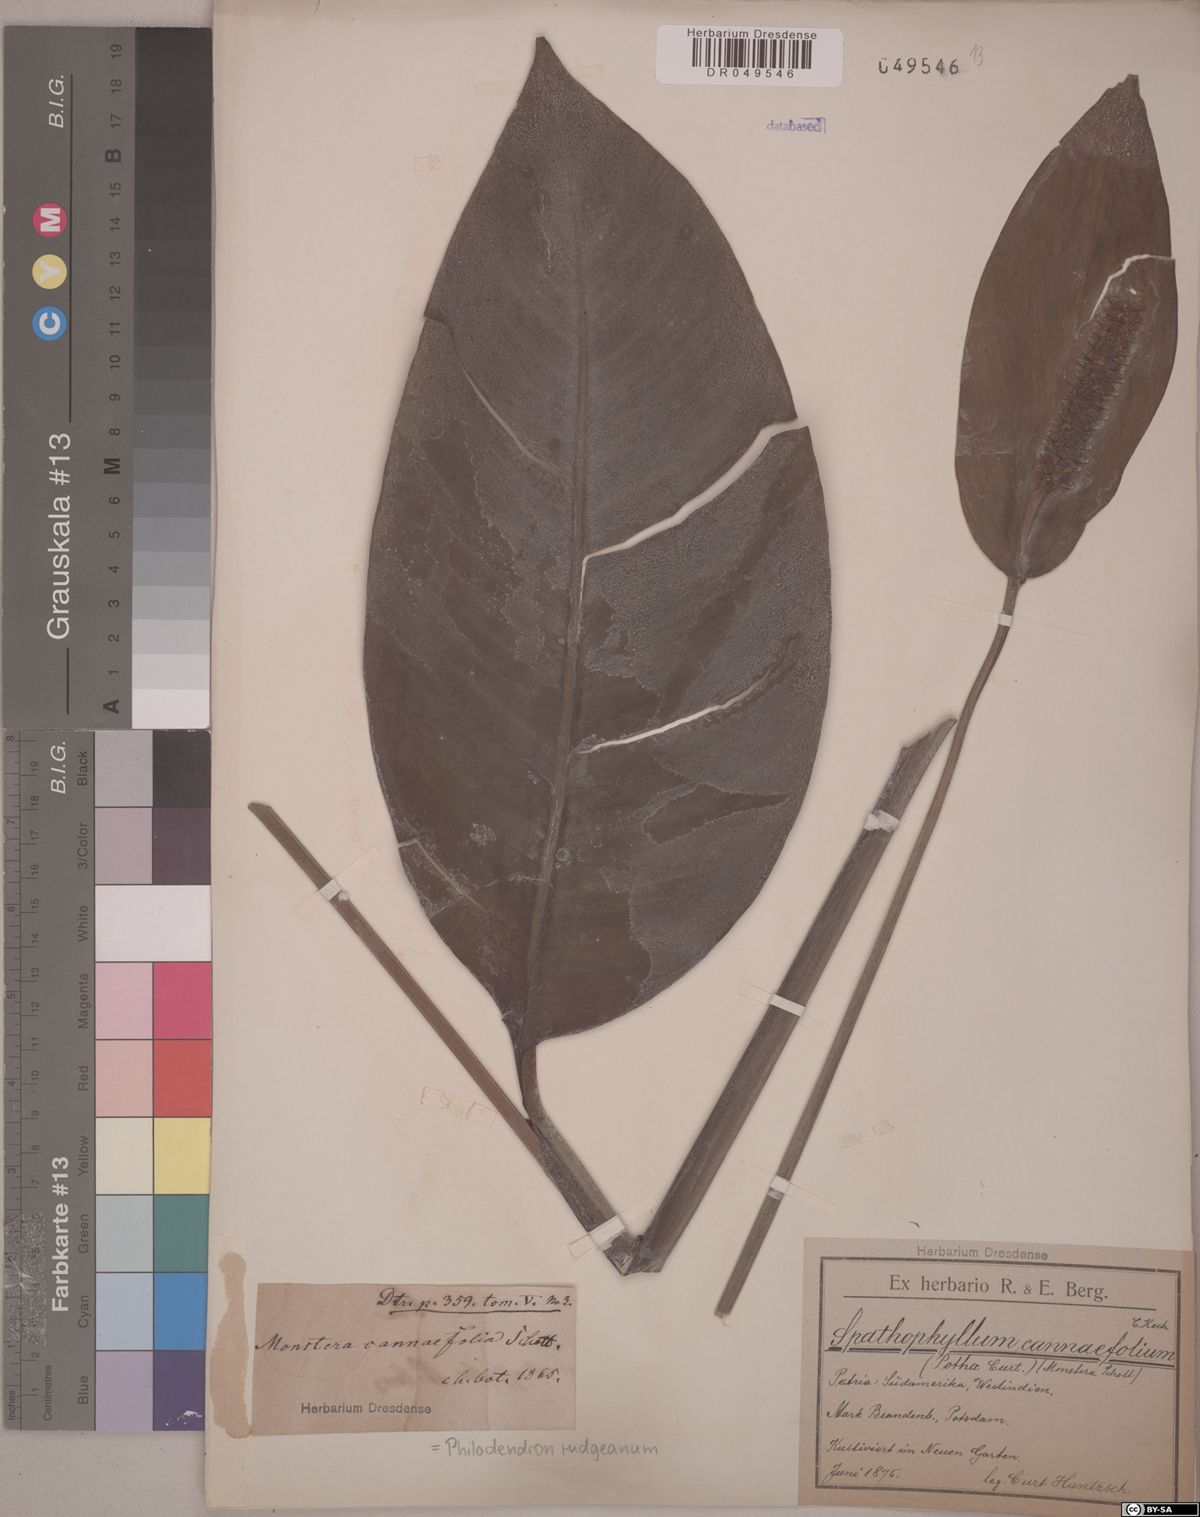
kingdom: Plantae
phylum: Tracheophyta
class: Liliopsida
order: Alismatales
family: Araceae
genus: Philodendron
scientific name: Philodendron rudgeanum
